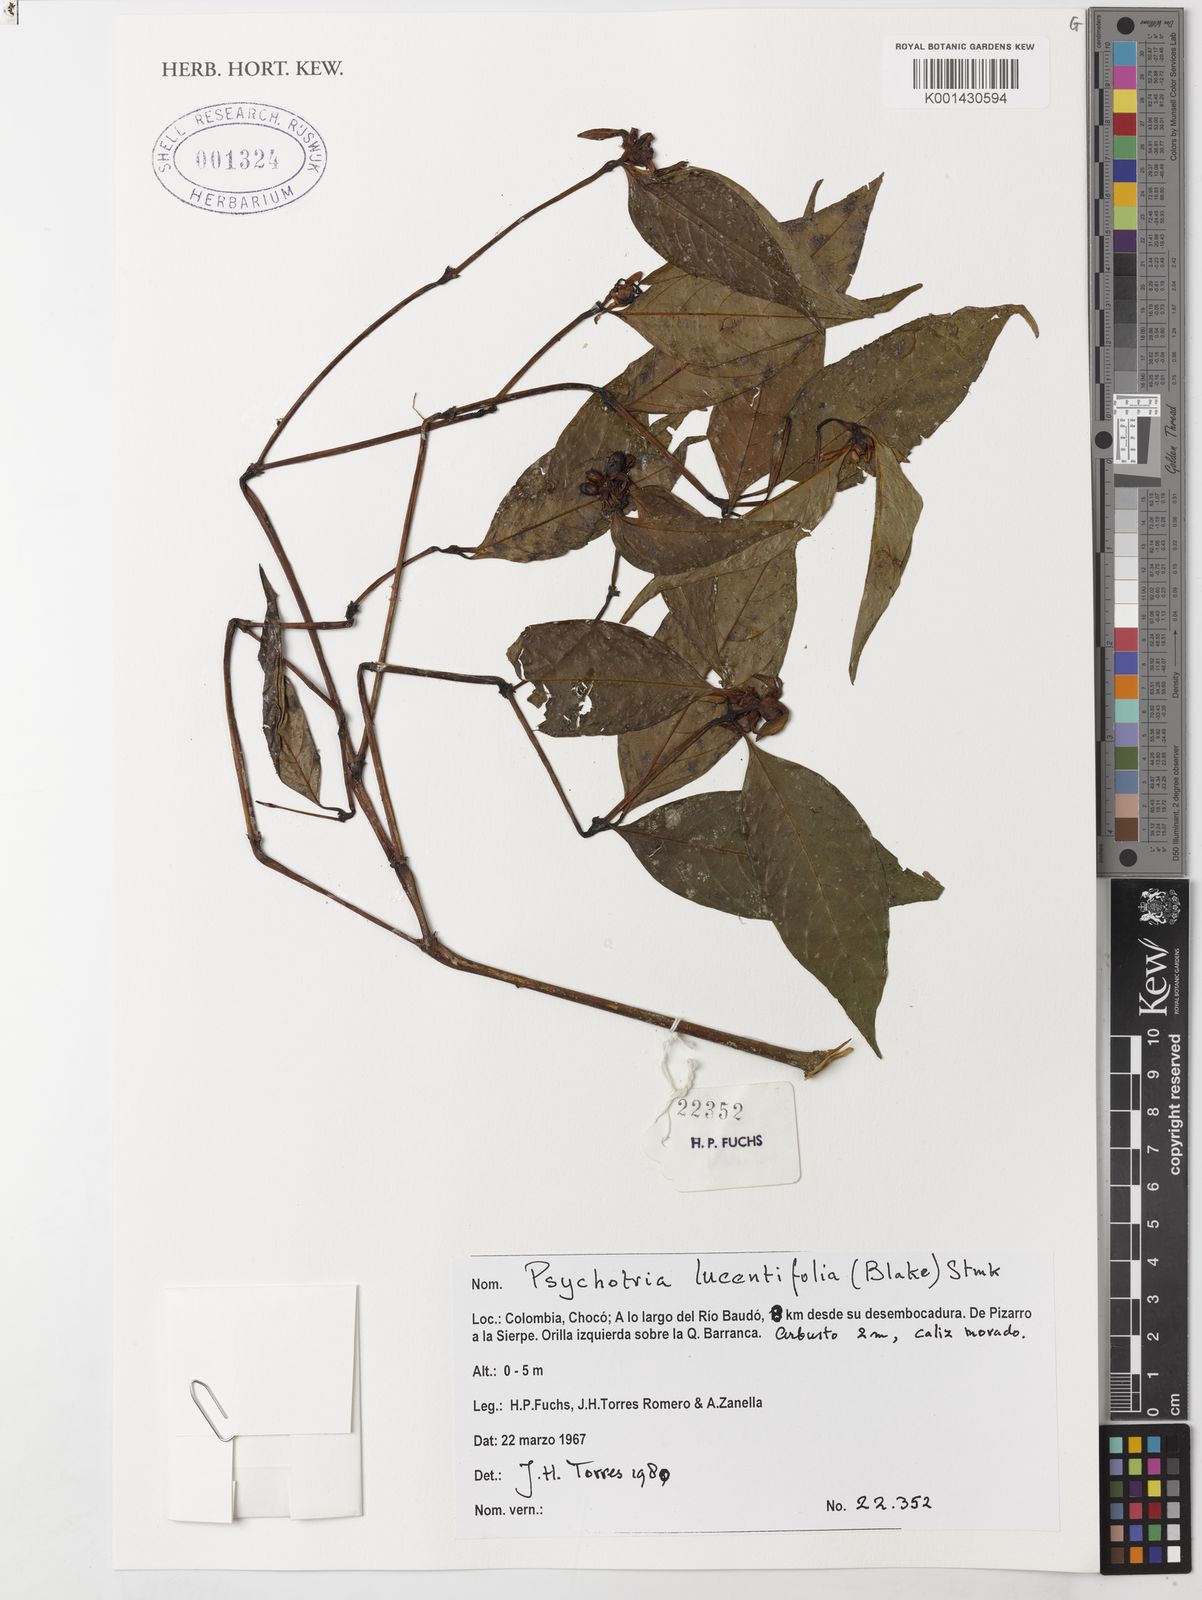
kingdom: Plantae
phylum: Tracheophyta
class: Magnoliopsida
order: Gentianales
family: Rubiaceae
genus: Palicourea
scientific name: Palicourea ostreophora
